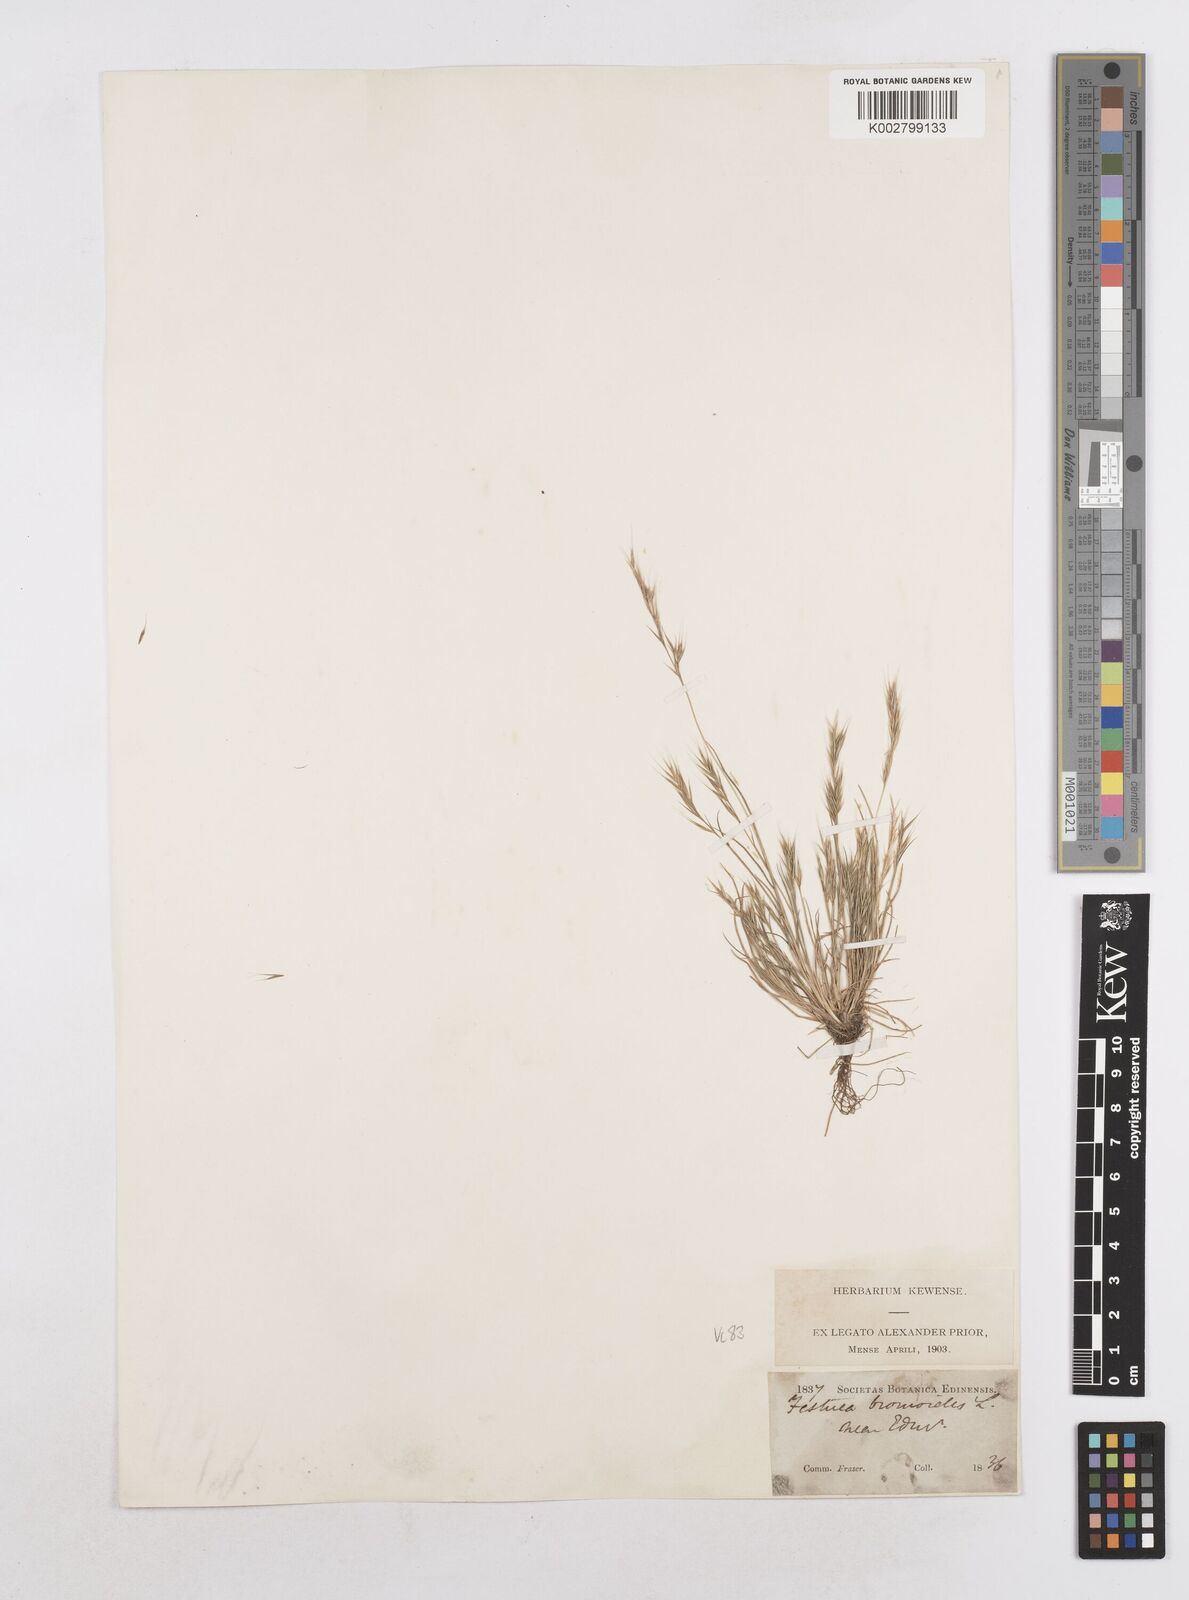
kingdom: Plantae
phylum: Tracheophyta
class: Liliopsida
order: Poales
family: Poaceae
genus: Festuca
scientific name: Festuca bromoides
